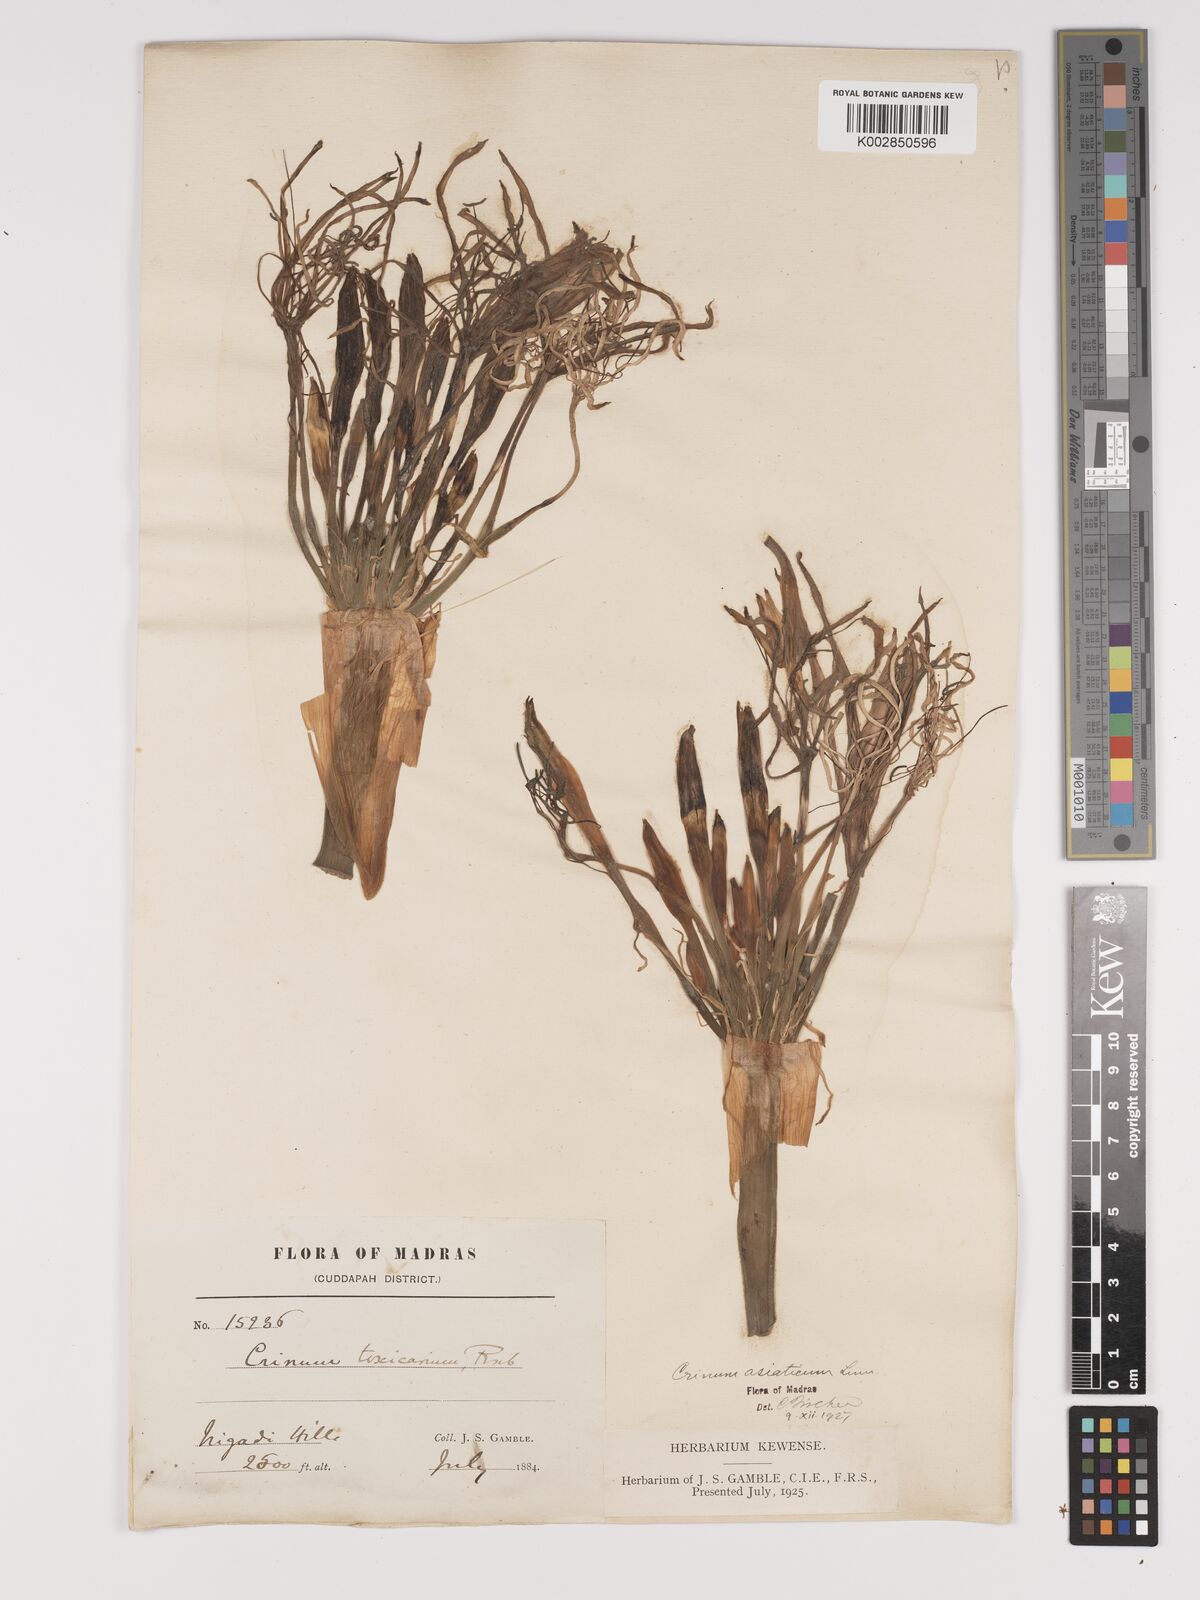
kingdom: Plantae
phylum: Tracheophyta
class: Liliopsida
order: Asparagales
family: Amaryllidaceae
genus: Crinum
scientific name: Crinum asiaticum
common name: Poisonbulb
